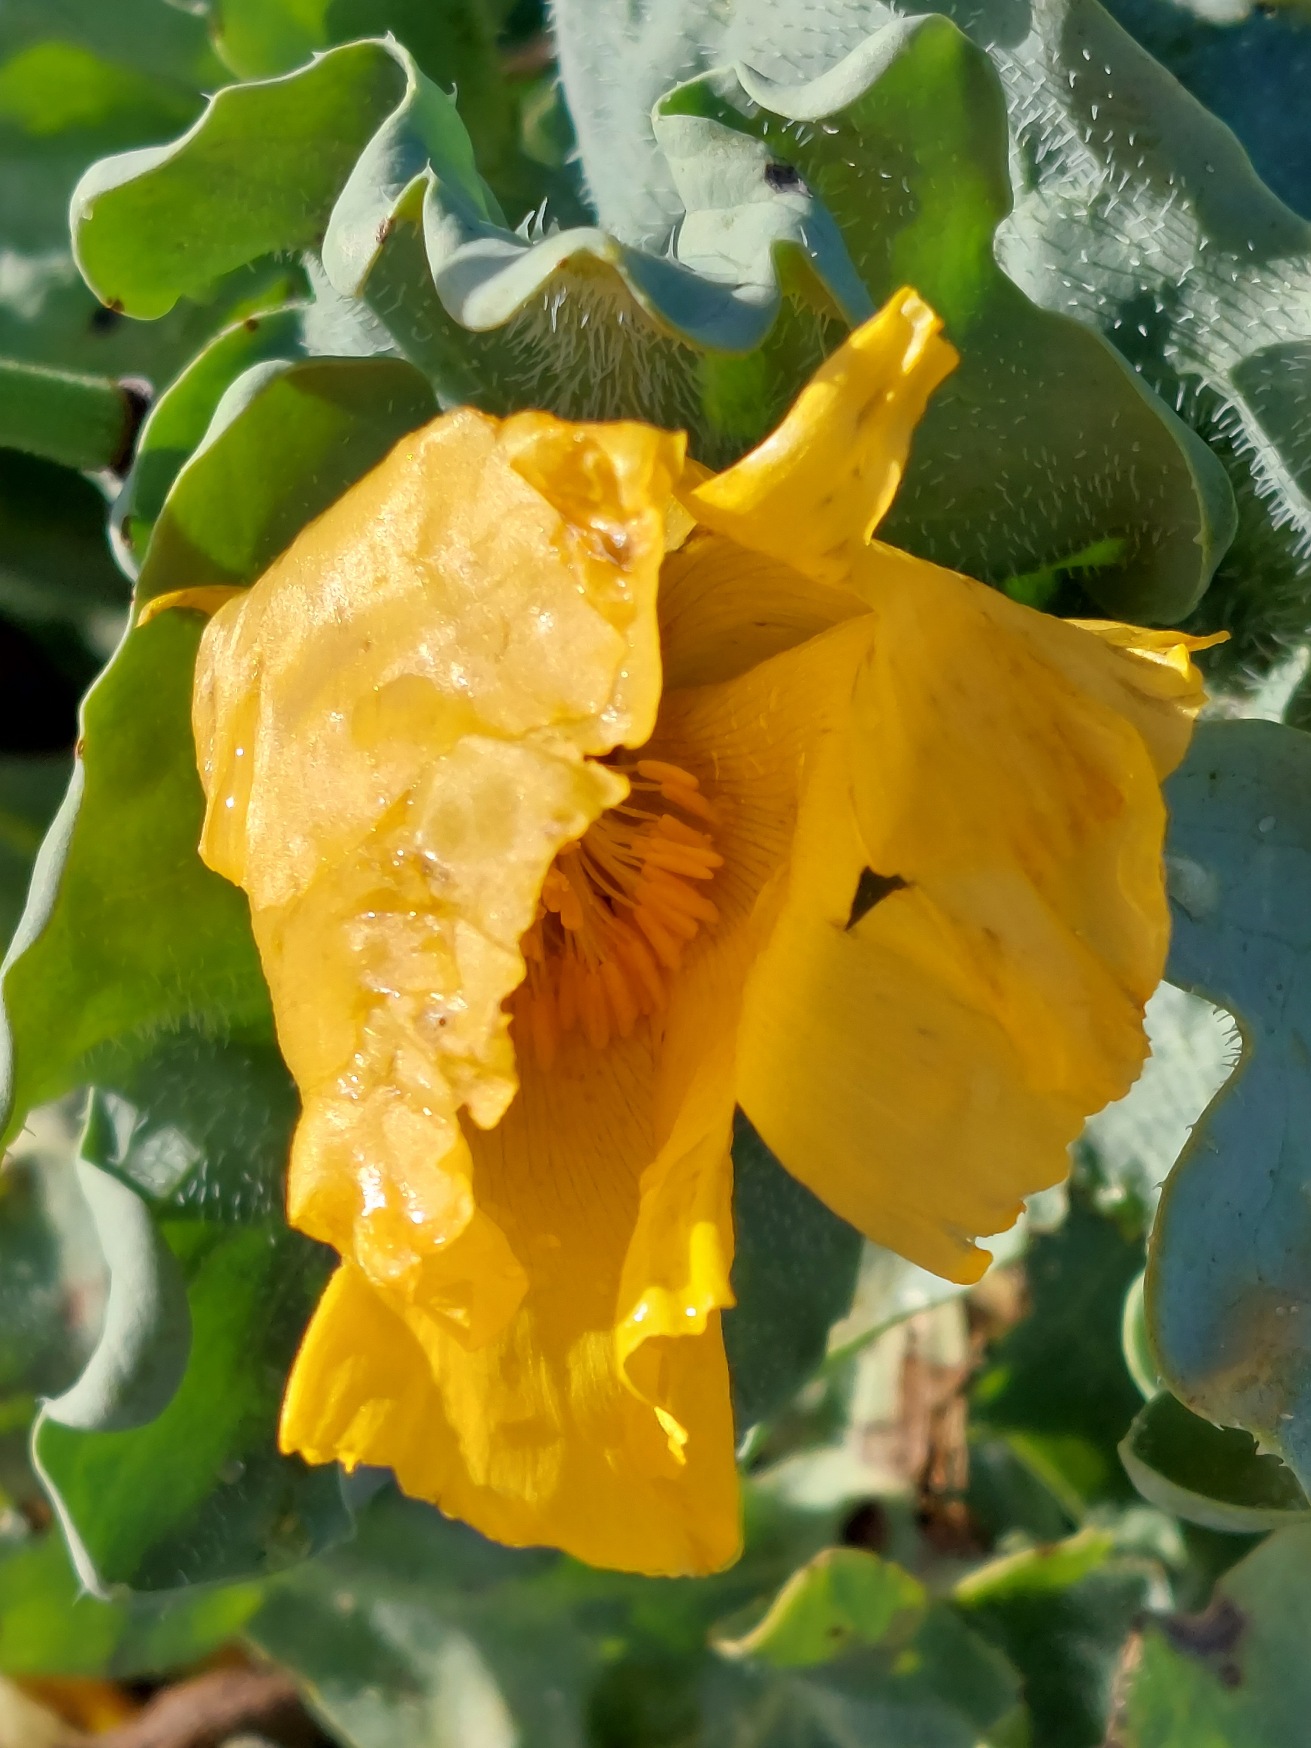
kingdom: Plantae
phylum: Tracheophyta
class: Magnoliopsida
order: Ranunculales
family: Papaveraceae
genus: Glaucium
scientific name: Glaucium flavum
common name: Hornskulpe
